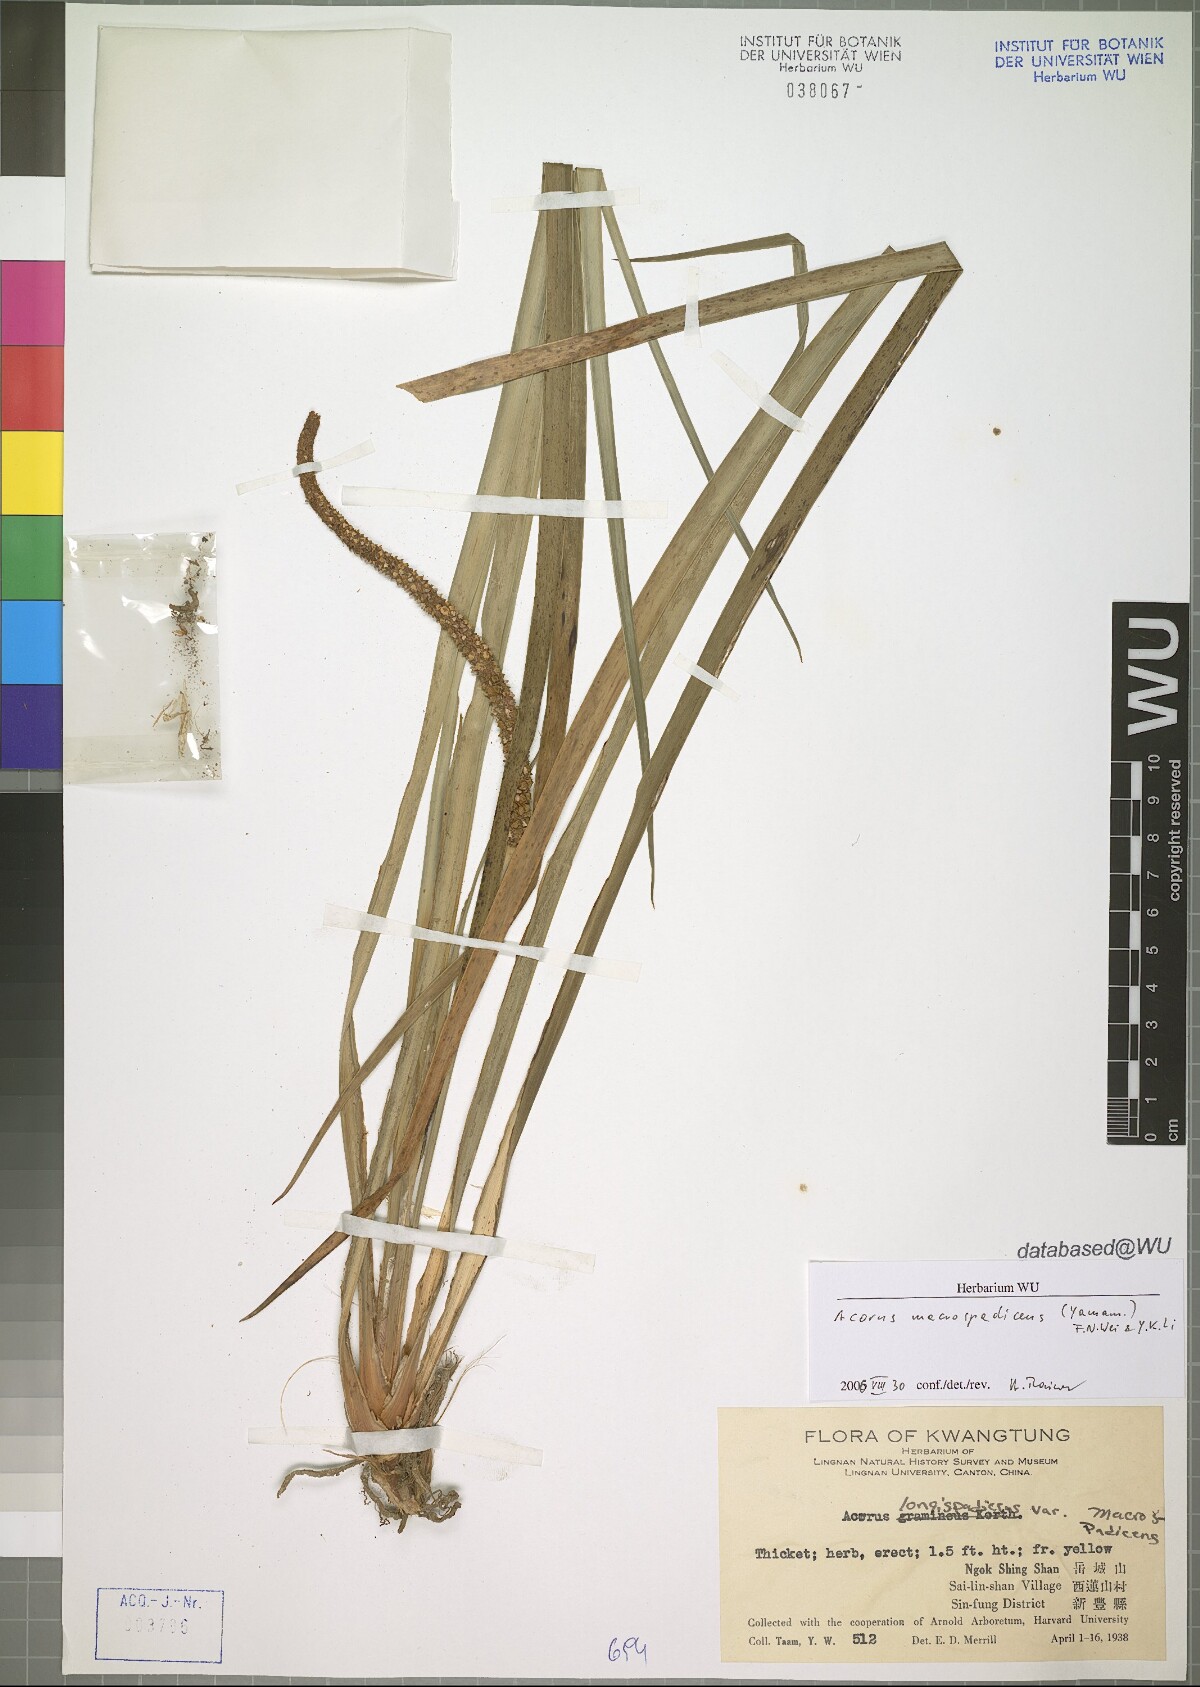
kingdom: Plantae
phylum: Tracheophyta
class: Liliopsida
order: Acorales
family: Acoraceae
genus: Acorus
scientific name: Acorus gramineus
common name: Slender sweet-flag
